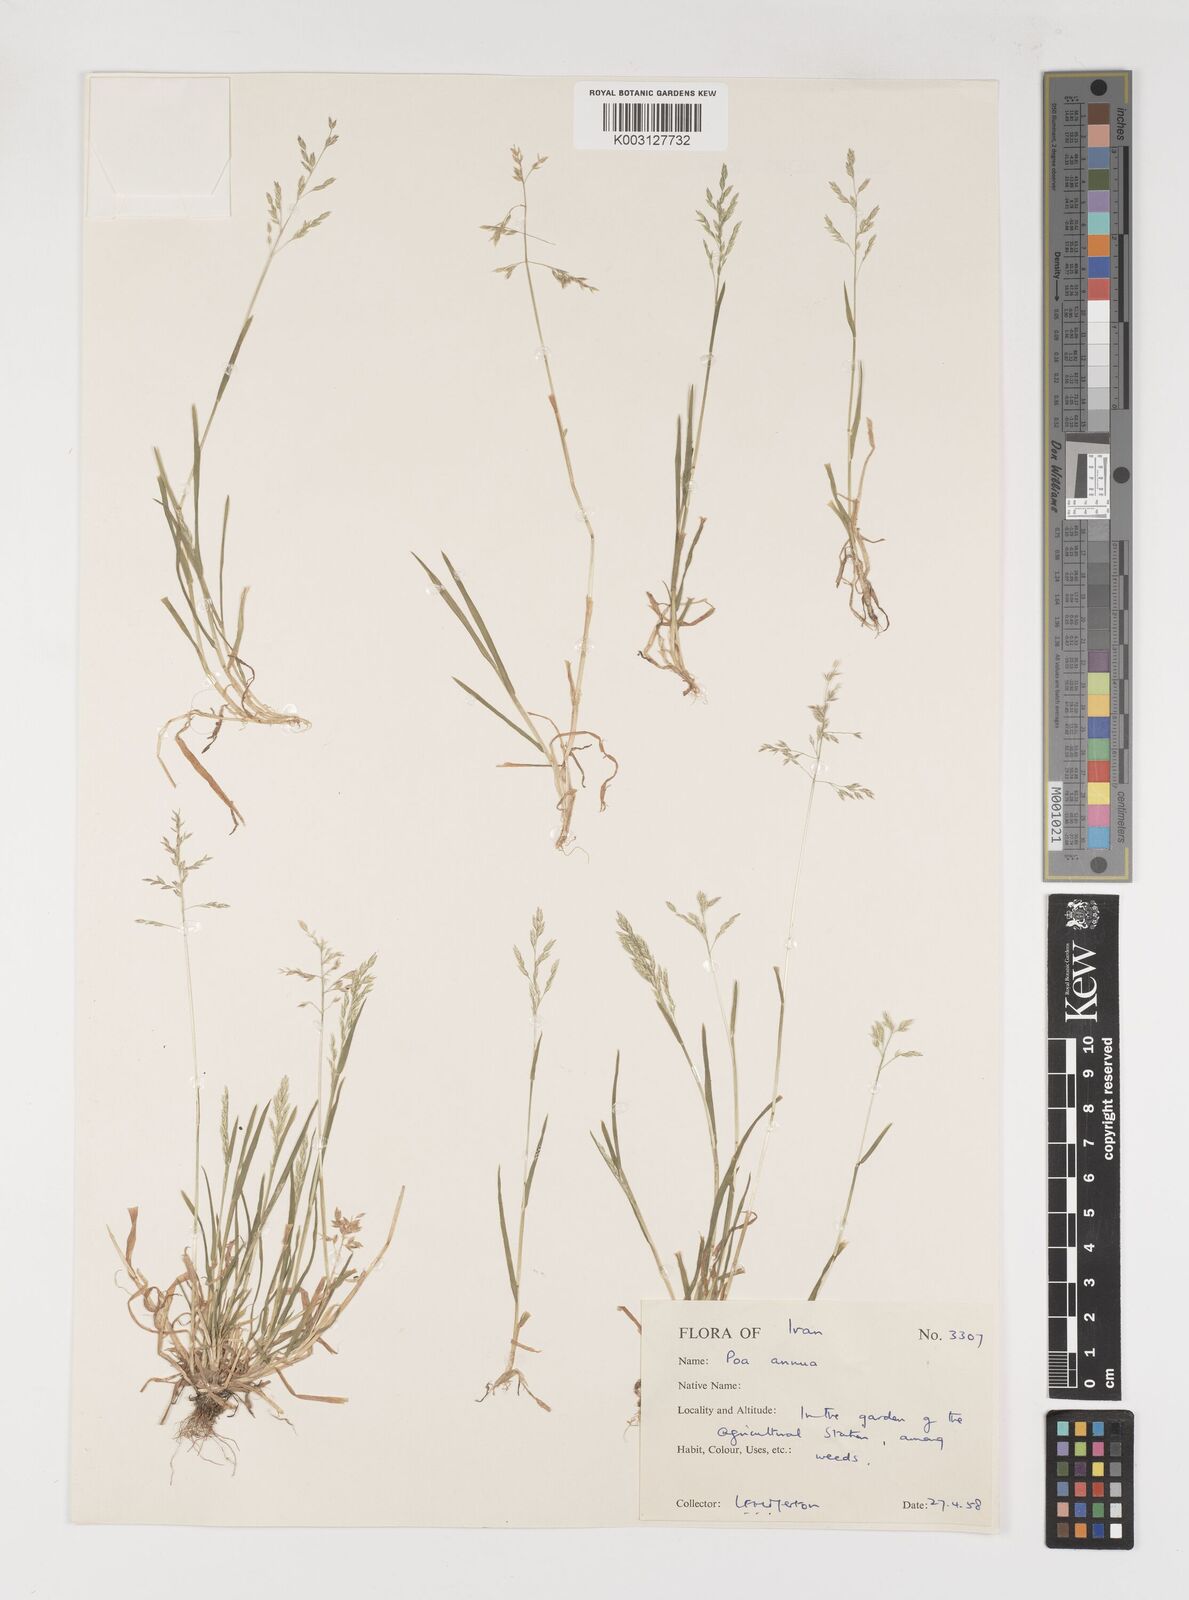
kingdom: Plantae
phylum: Tracheophyta
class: Liliopsida
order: Poales
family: Poaceae
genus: Poa
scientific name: Poa annua
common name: Annual bluegrass
